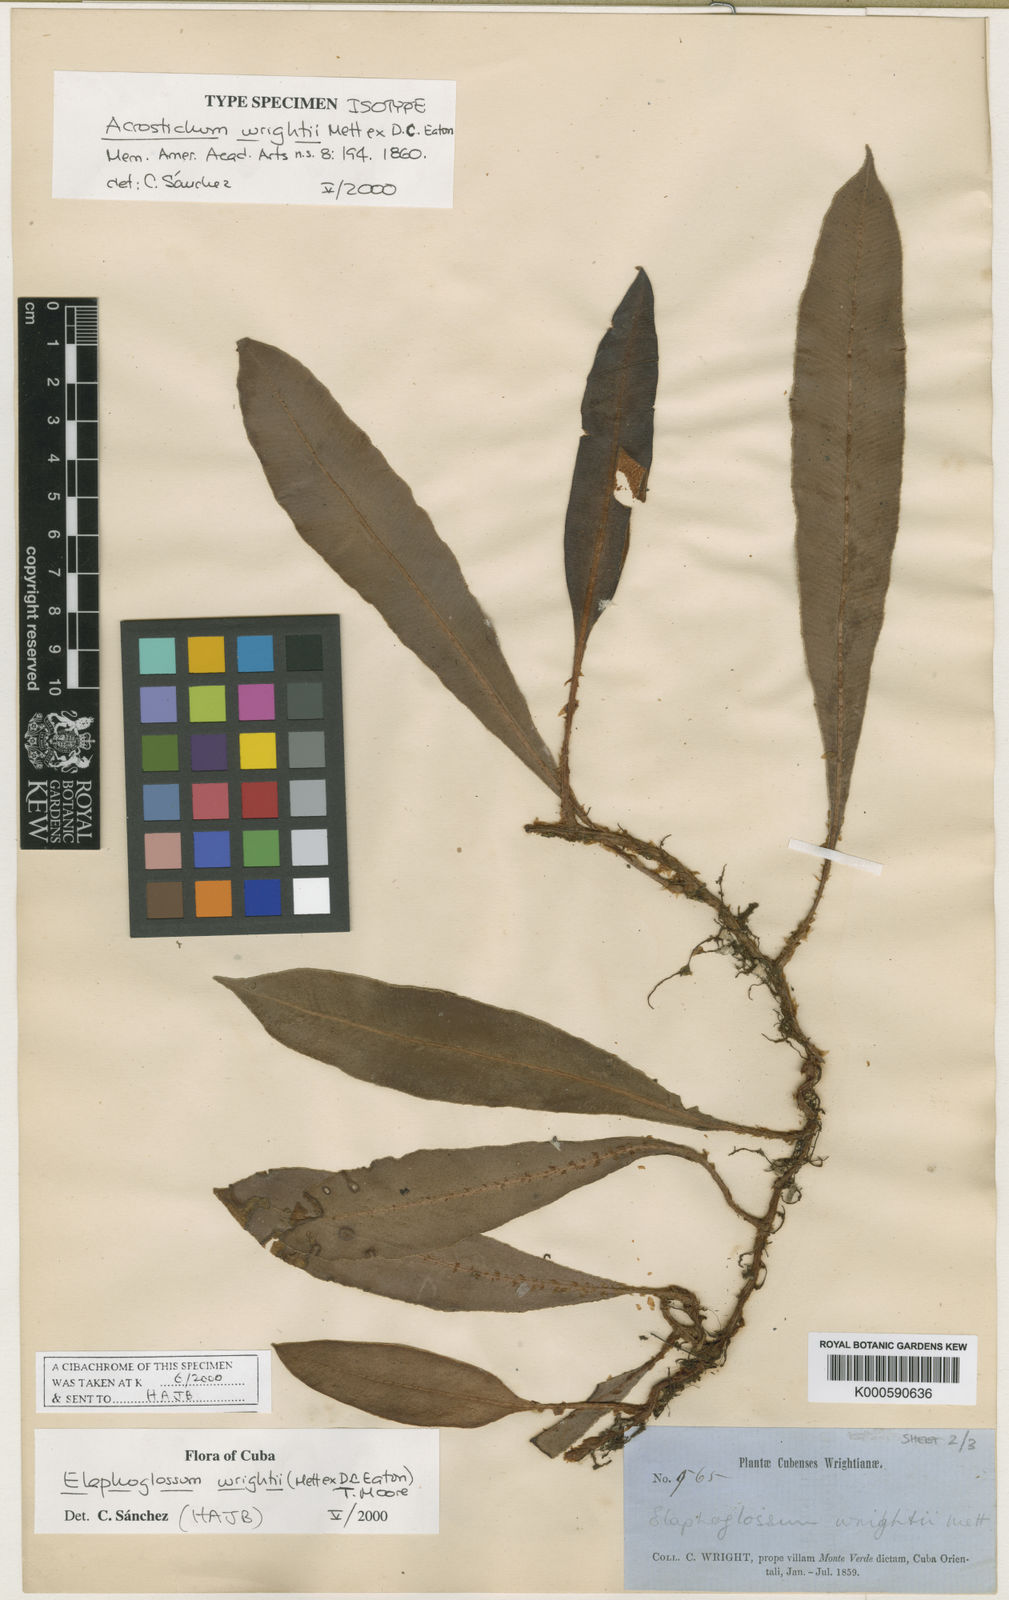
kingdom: Plantae
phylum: Tracheophyta
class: Polypodiopsida
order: Polypodiales
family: Dryopteridaceae
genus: Elaphoglossum
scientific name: Elaphoglossum wrightii
